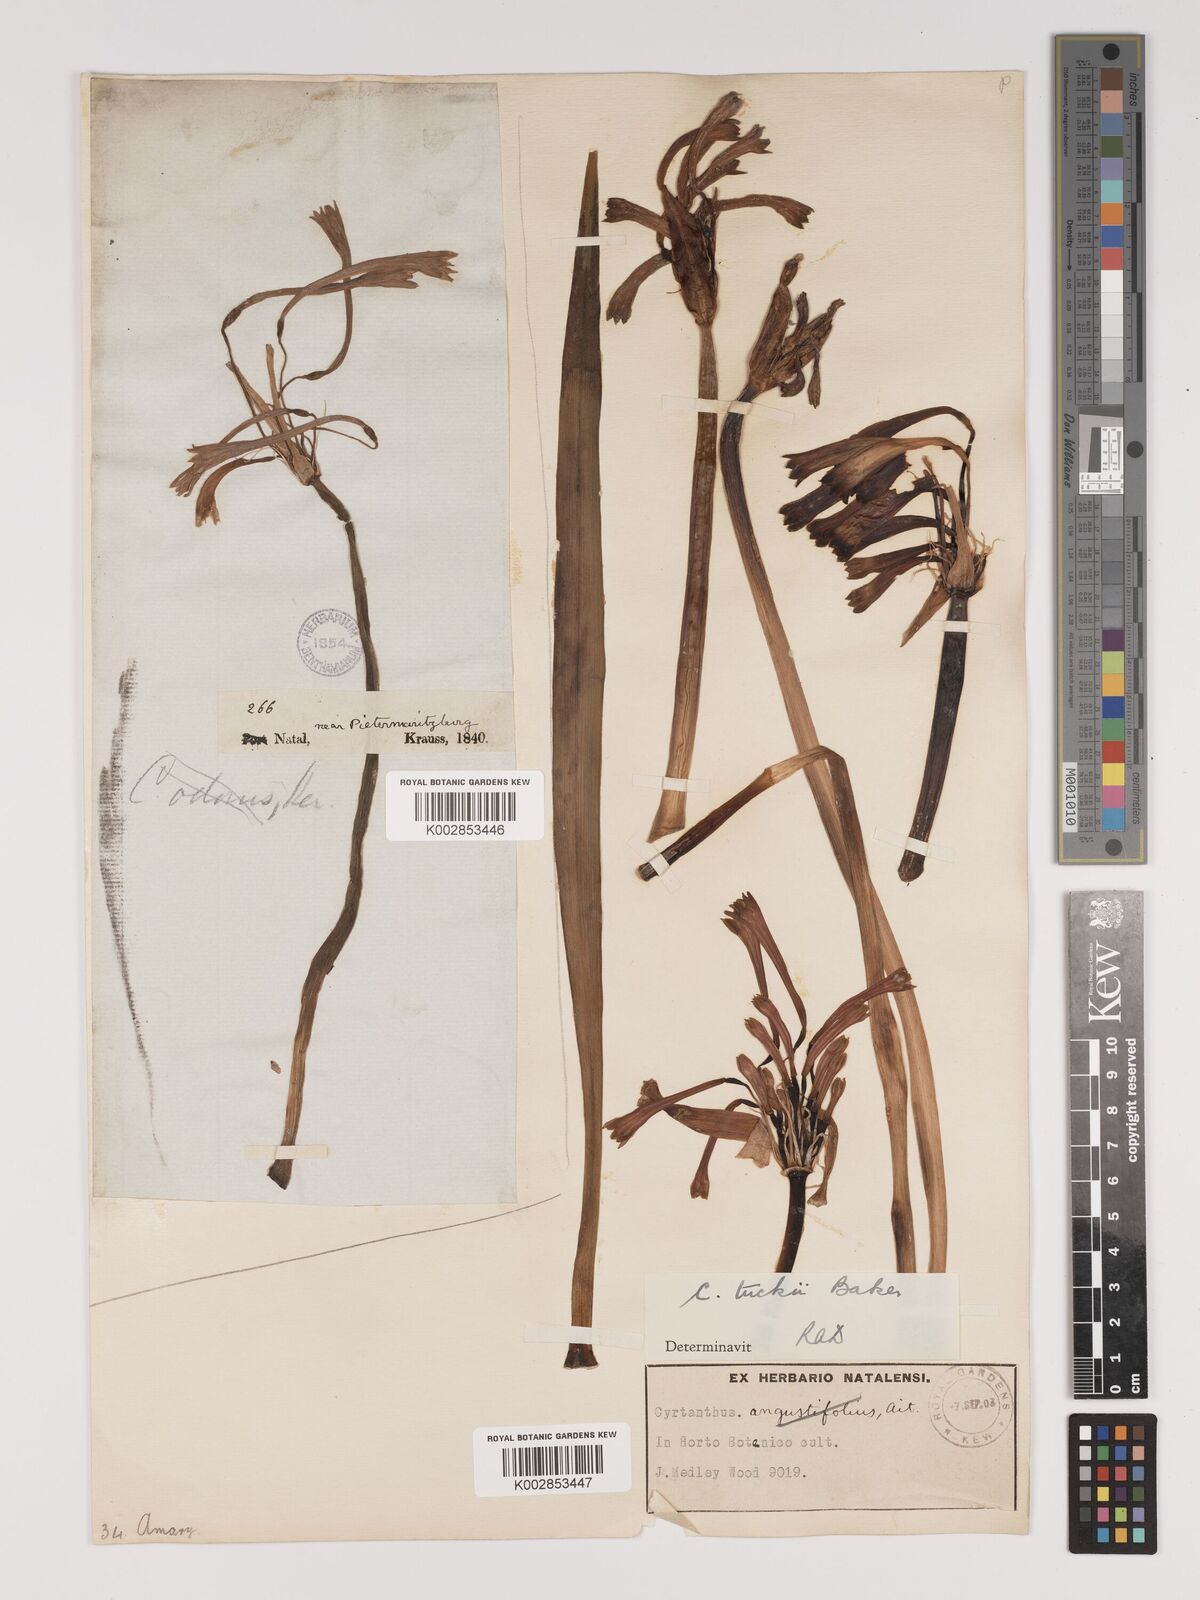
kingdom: Plantae
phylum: Tracheophyta
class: Liliopsida
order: Asparagales
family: Amaryllidaceae
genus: Cyrtanthus
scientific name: Cyrtanthus tuckii
